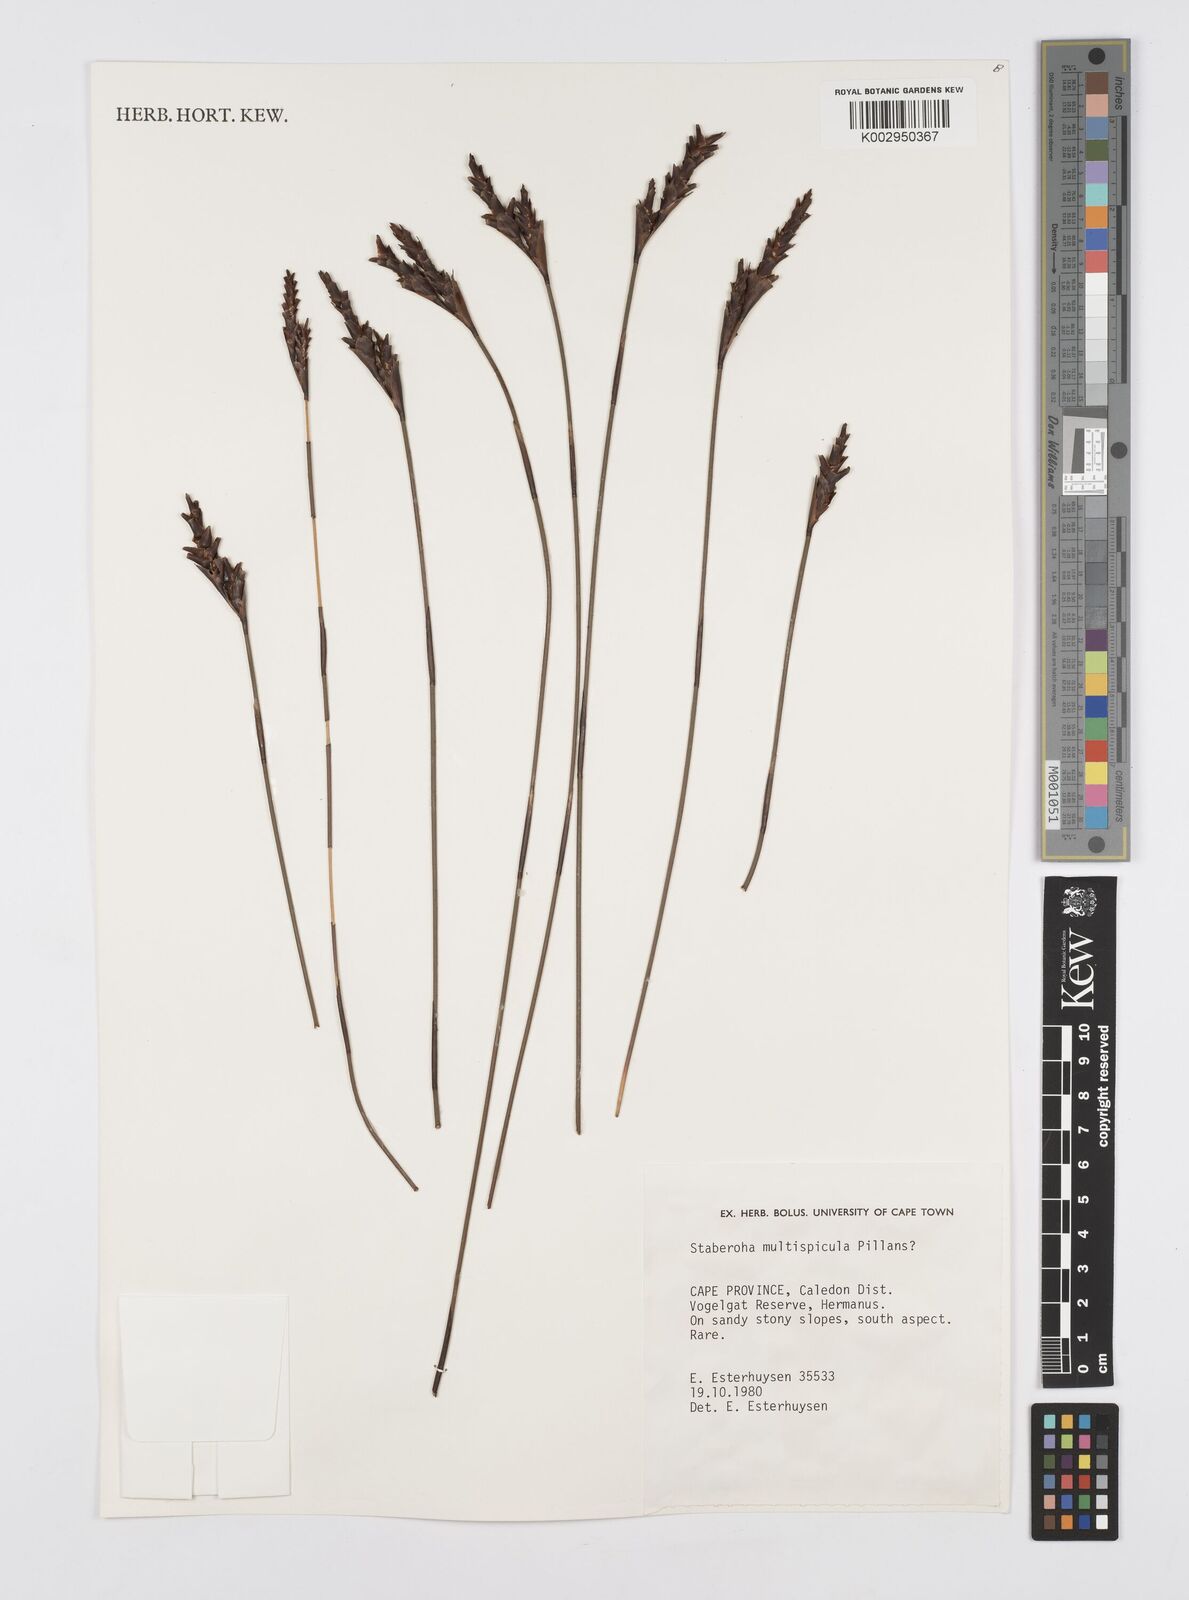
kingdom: Plantae
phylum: Tracheophyta
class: Liliopsida
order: Poales
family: Restionaceae
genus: Staberoha
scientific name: Staberoha multispicula
